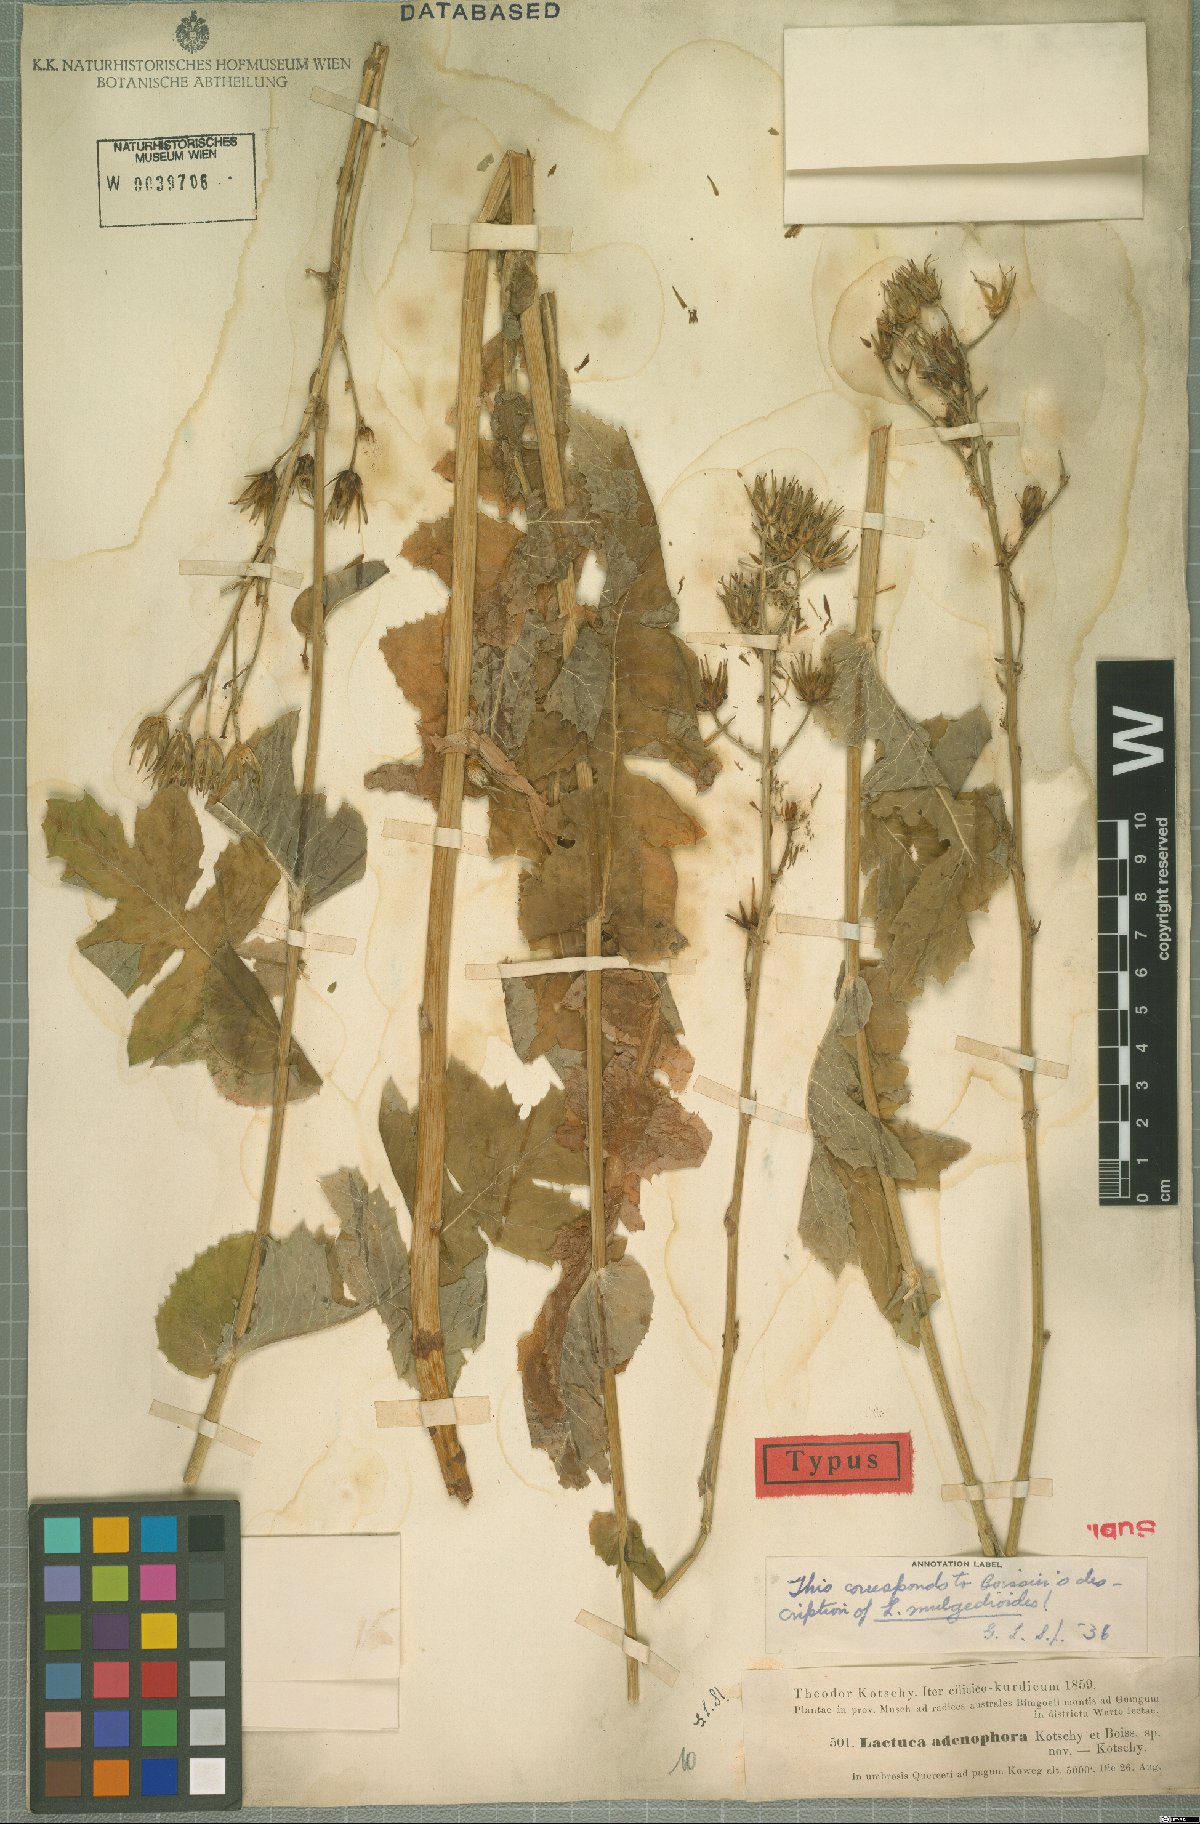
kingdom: Plantae
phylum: Tracheophyta
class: Magnoliopsida
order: Asterales
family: Asteraceae
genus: Lactuca
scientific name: Lactuca adenophora
